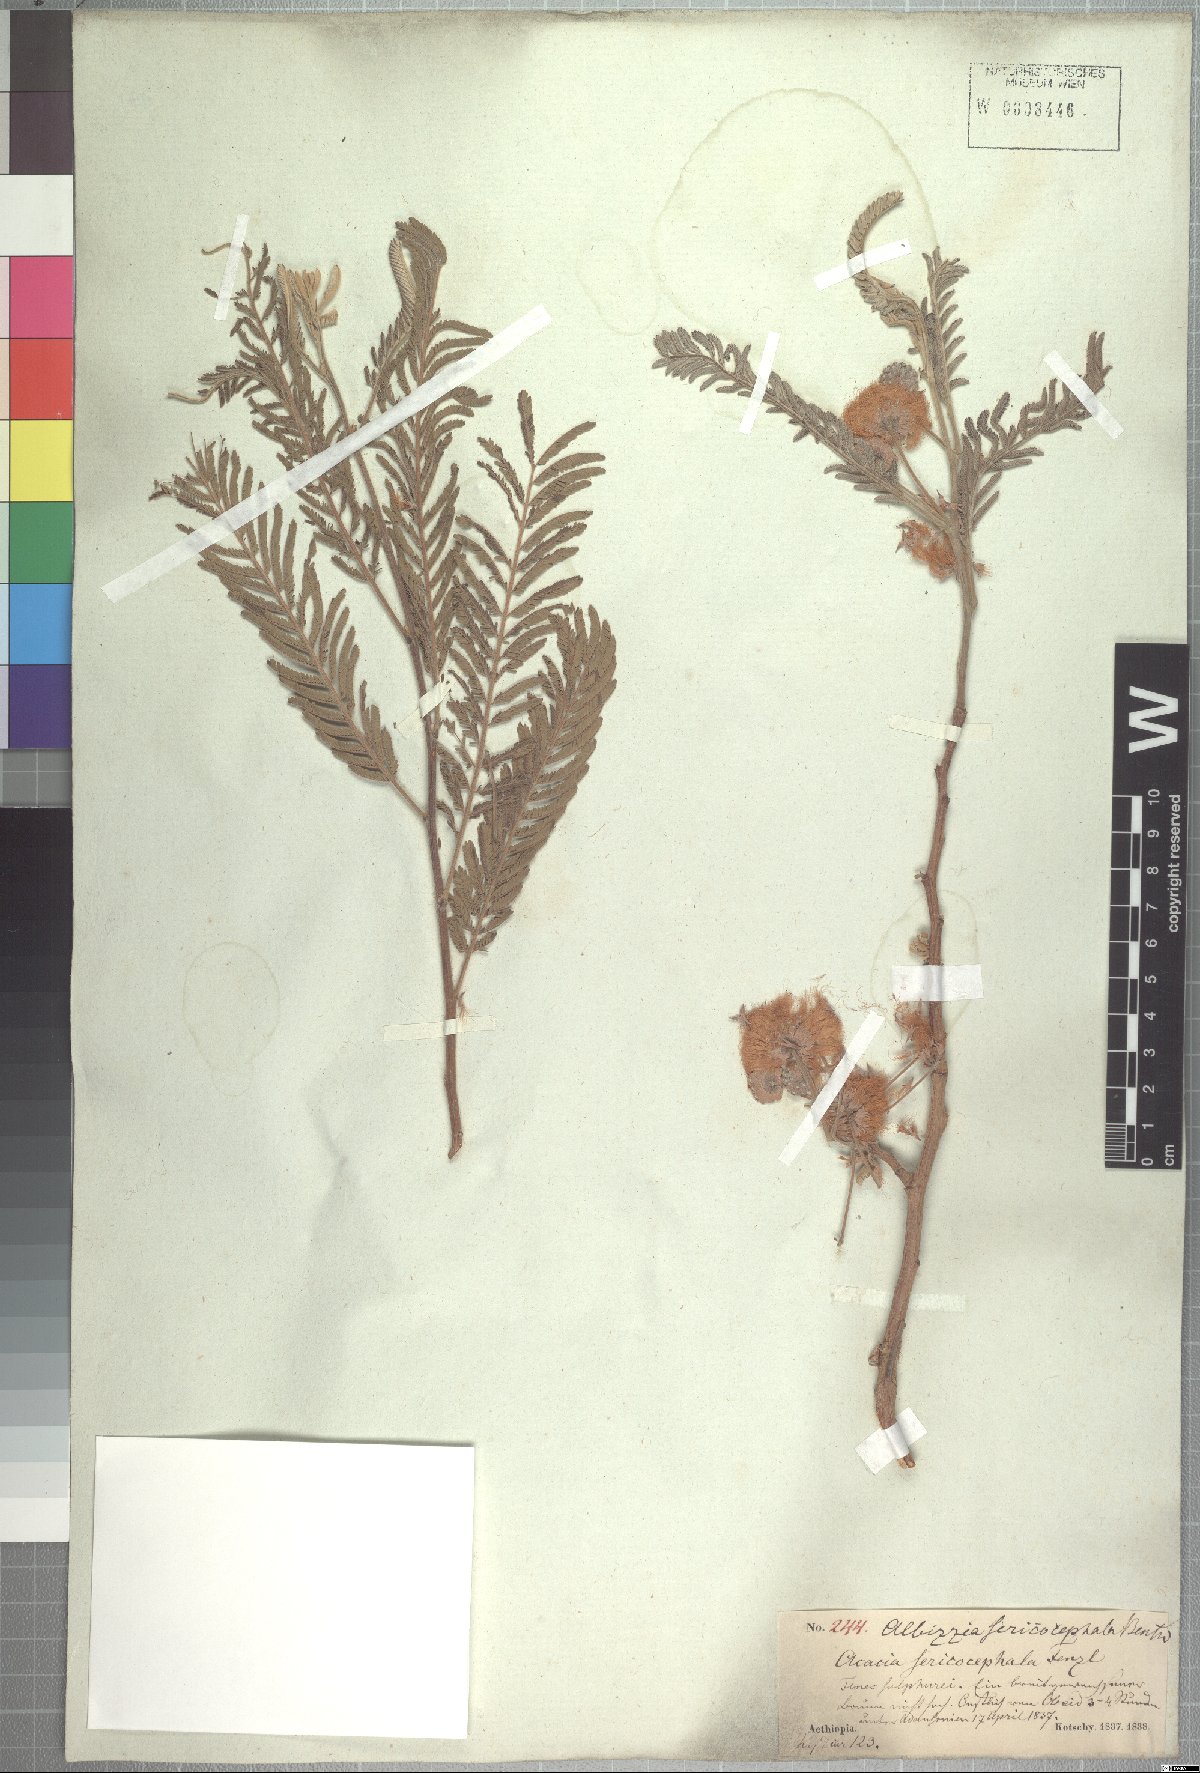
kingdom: Plantae
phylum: Tracheophyta
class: Magnoliopsida
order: Fabales
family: Fabaceae
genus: Albizia
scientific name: Albizia amara
